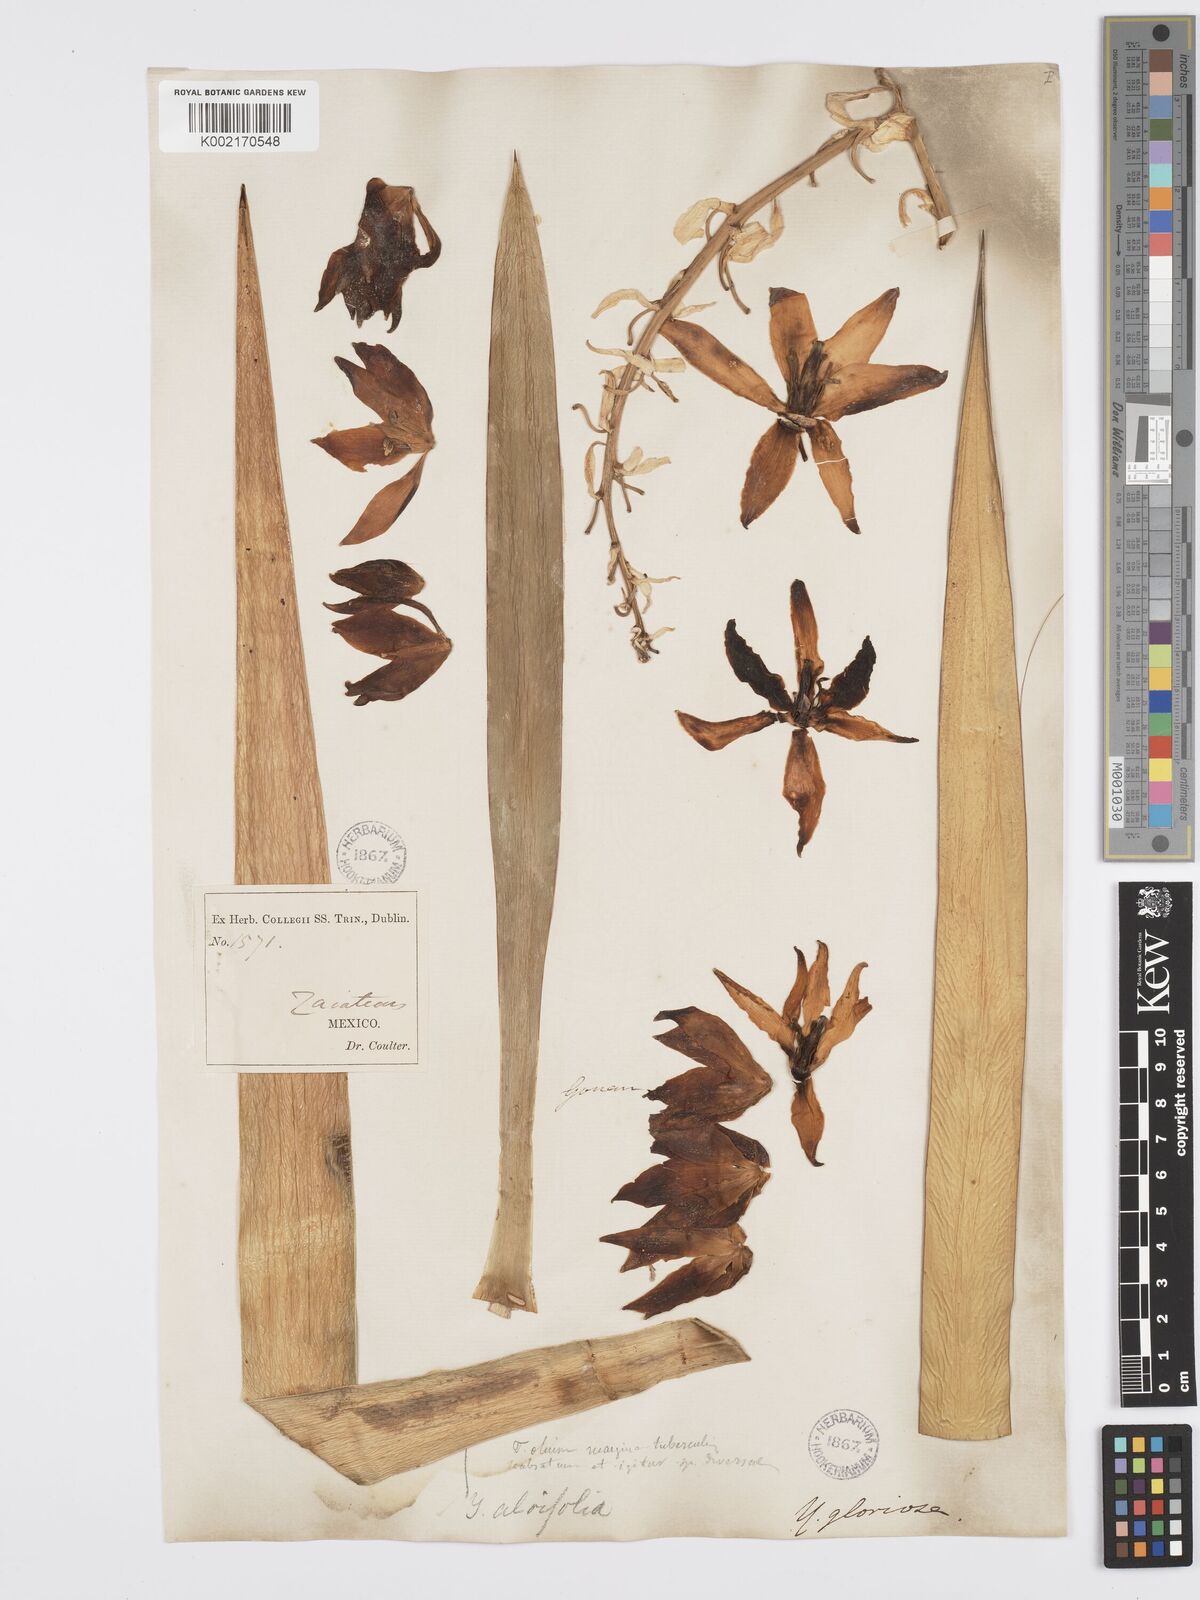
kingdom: Plantae
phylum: Tracheophyta
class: Liliopsida
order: Asparagales
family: Asparagaceae
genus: Yucca
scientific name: Yucca aloifolia
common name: Aloe yucca
